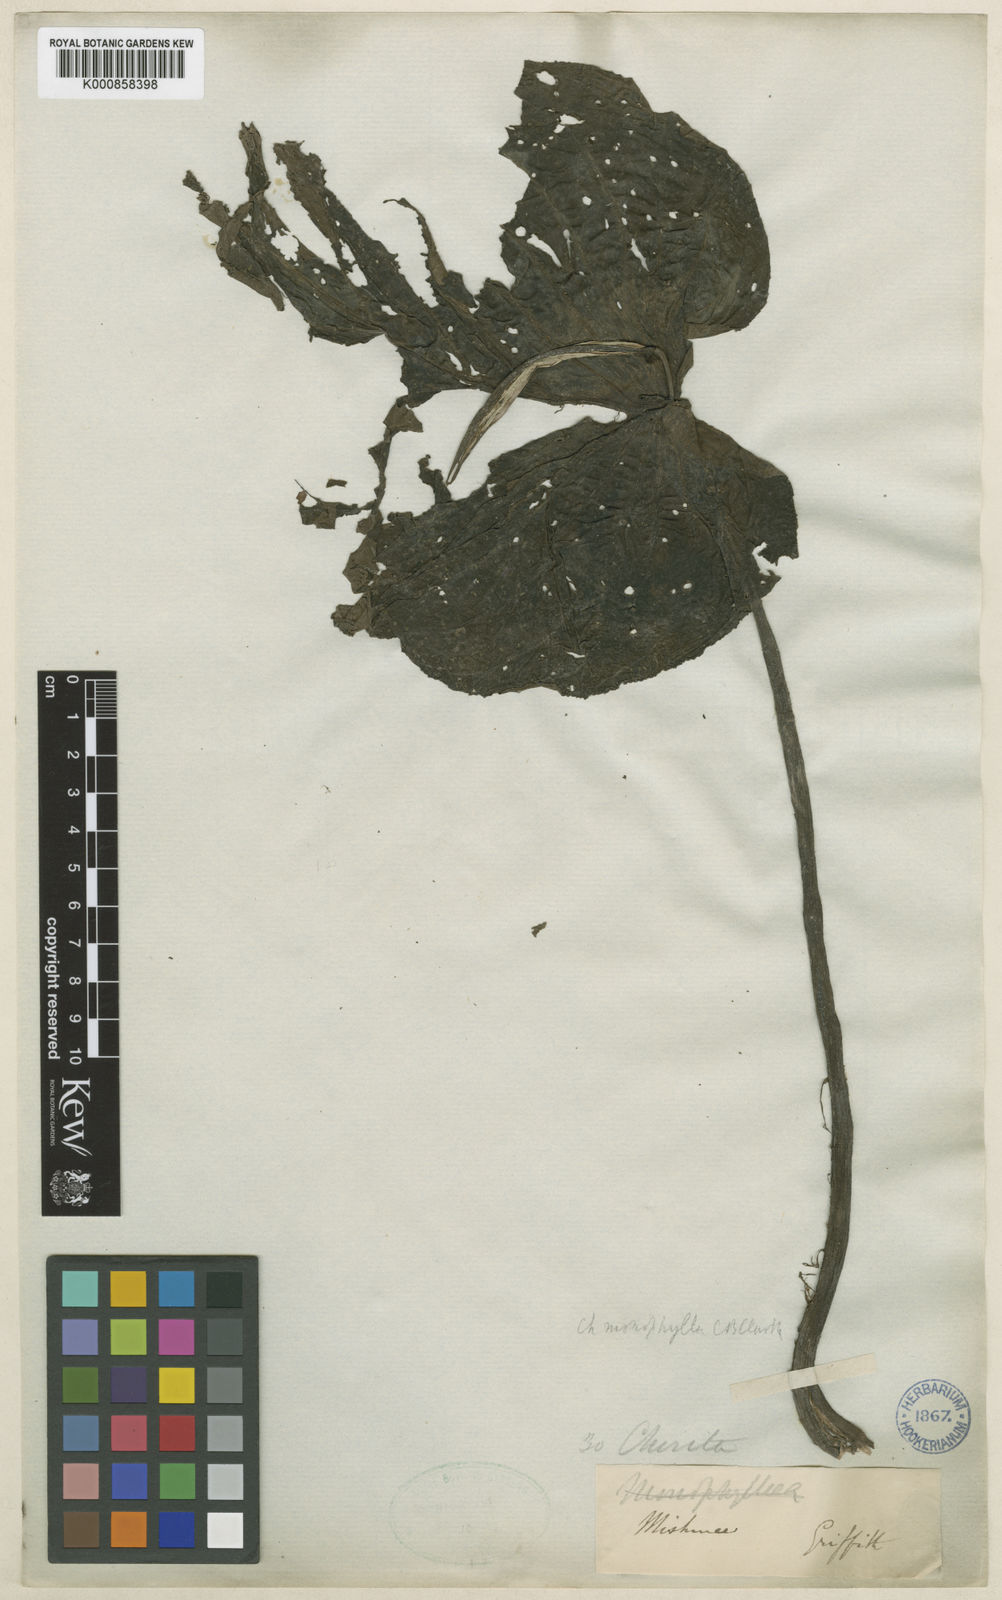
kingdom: Plantae
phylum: Tracheophyta
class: Magnoliopsida
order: Lamiales
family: Gesneriaceae
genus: Henckelia
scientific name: Henckelia monophylla
